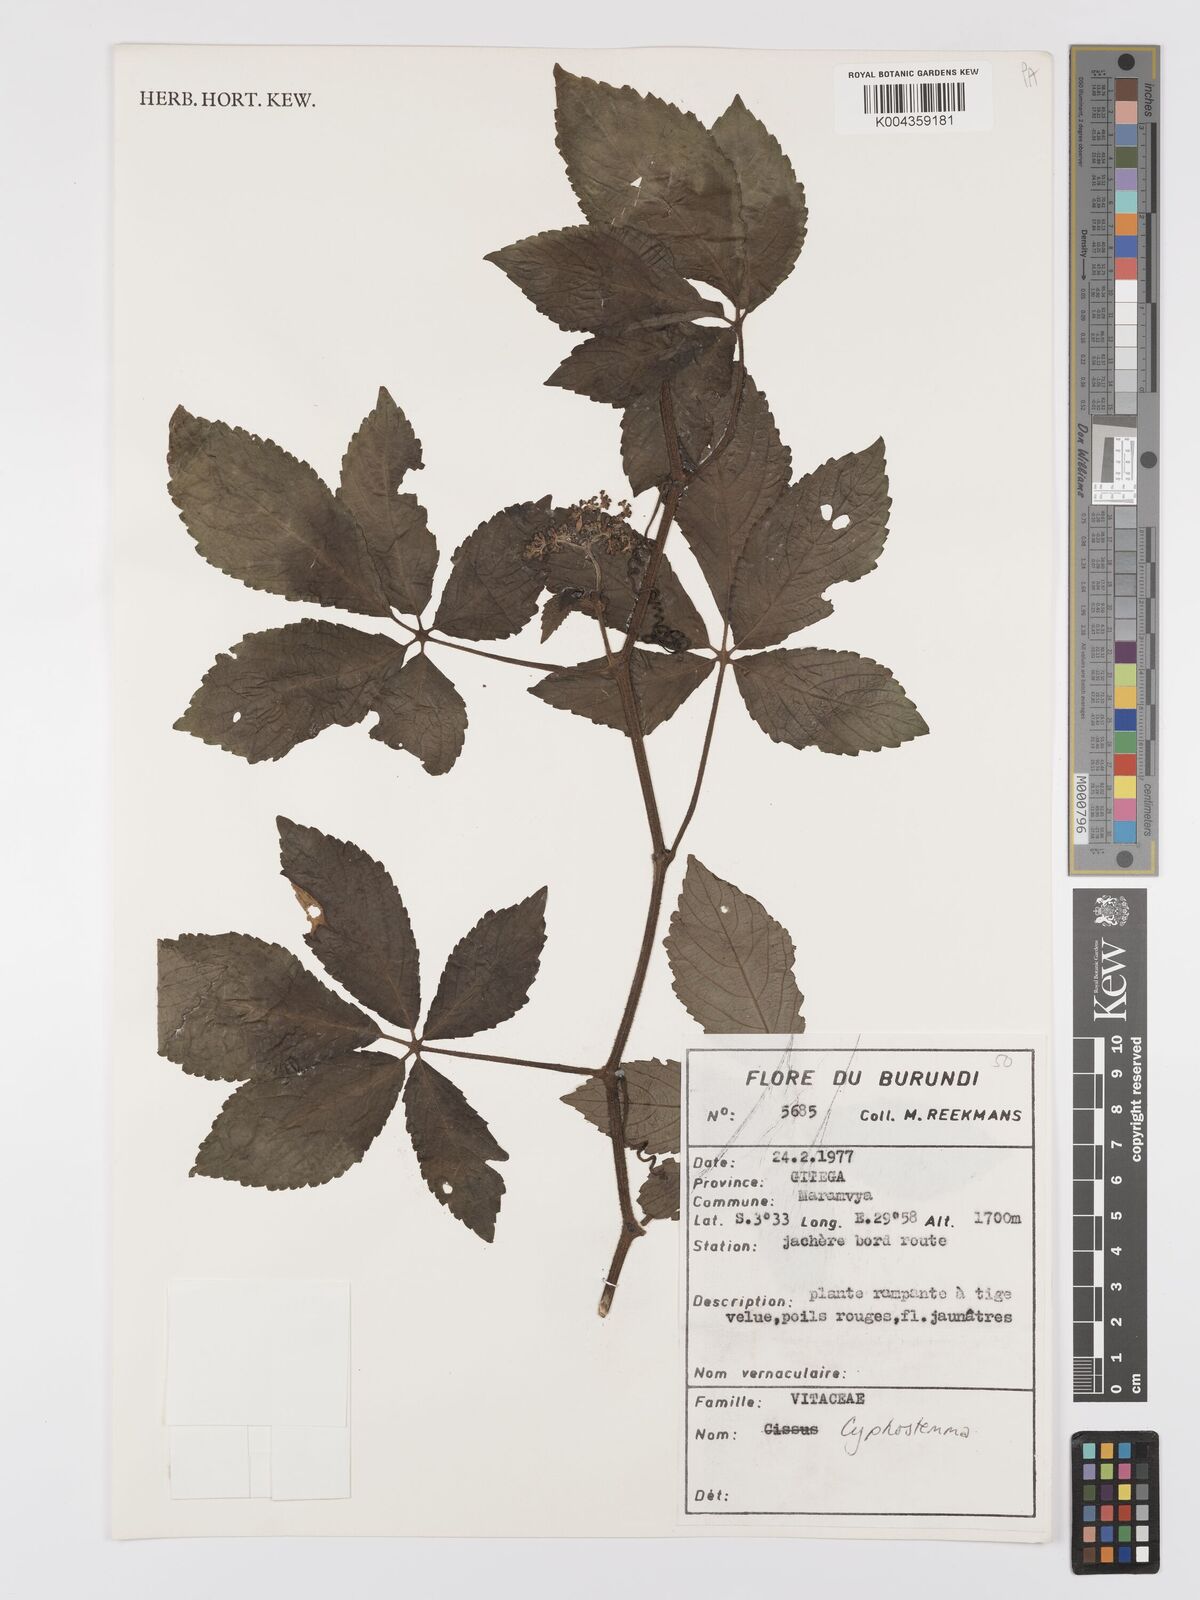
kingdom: Plantae
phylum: Tracheophyta
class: Magnoliopsida
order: Vitales
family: Vitaceae
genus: Cyphostemma
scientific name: Cyphostemma
